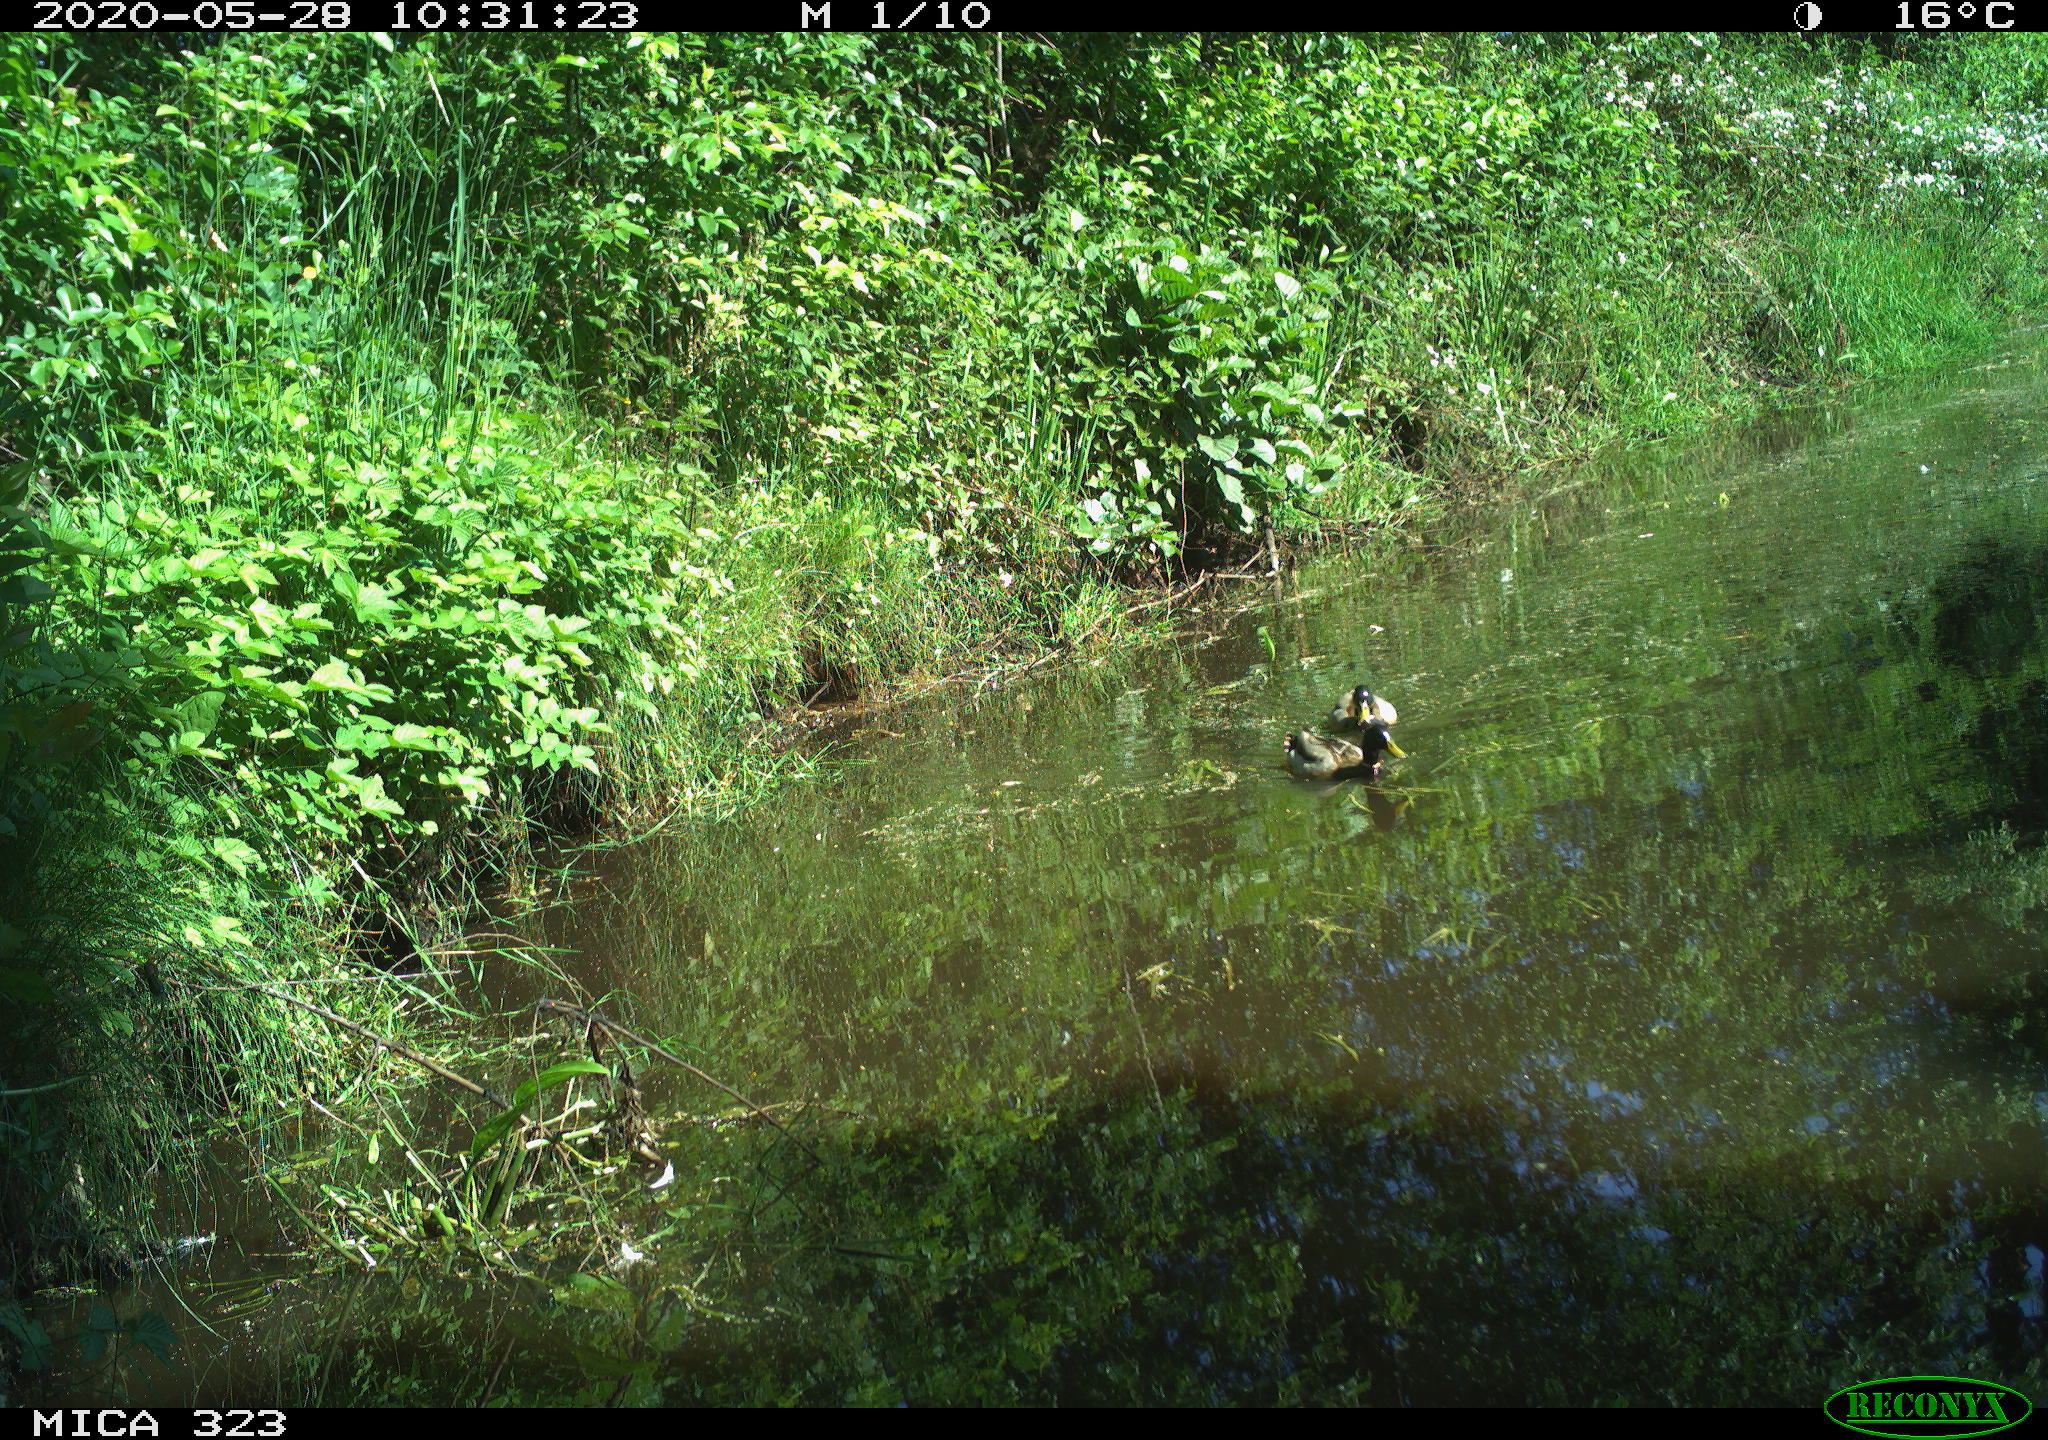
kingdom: Animalia
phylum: Chordata
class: Aves
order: Anseriformes
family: Anatidae
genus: Anas
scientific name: Anas platyrhynchos
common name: Mallard
